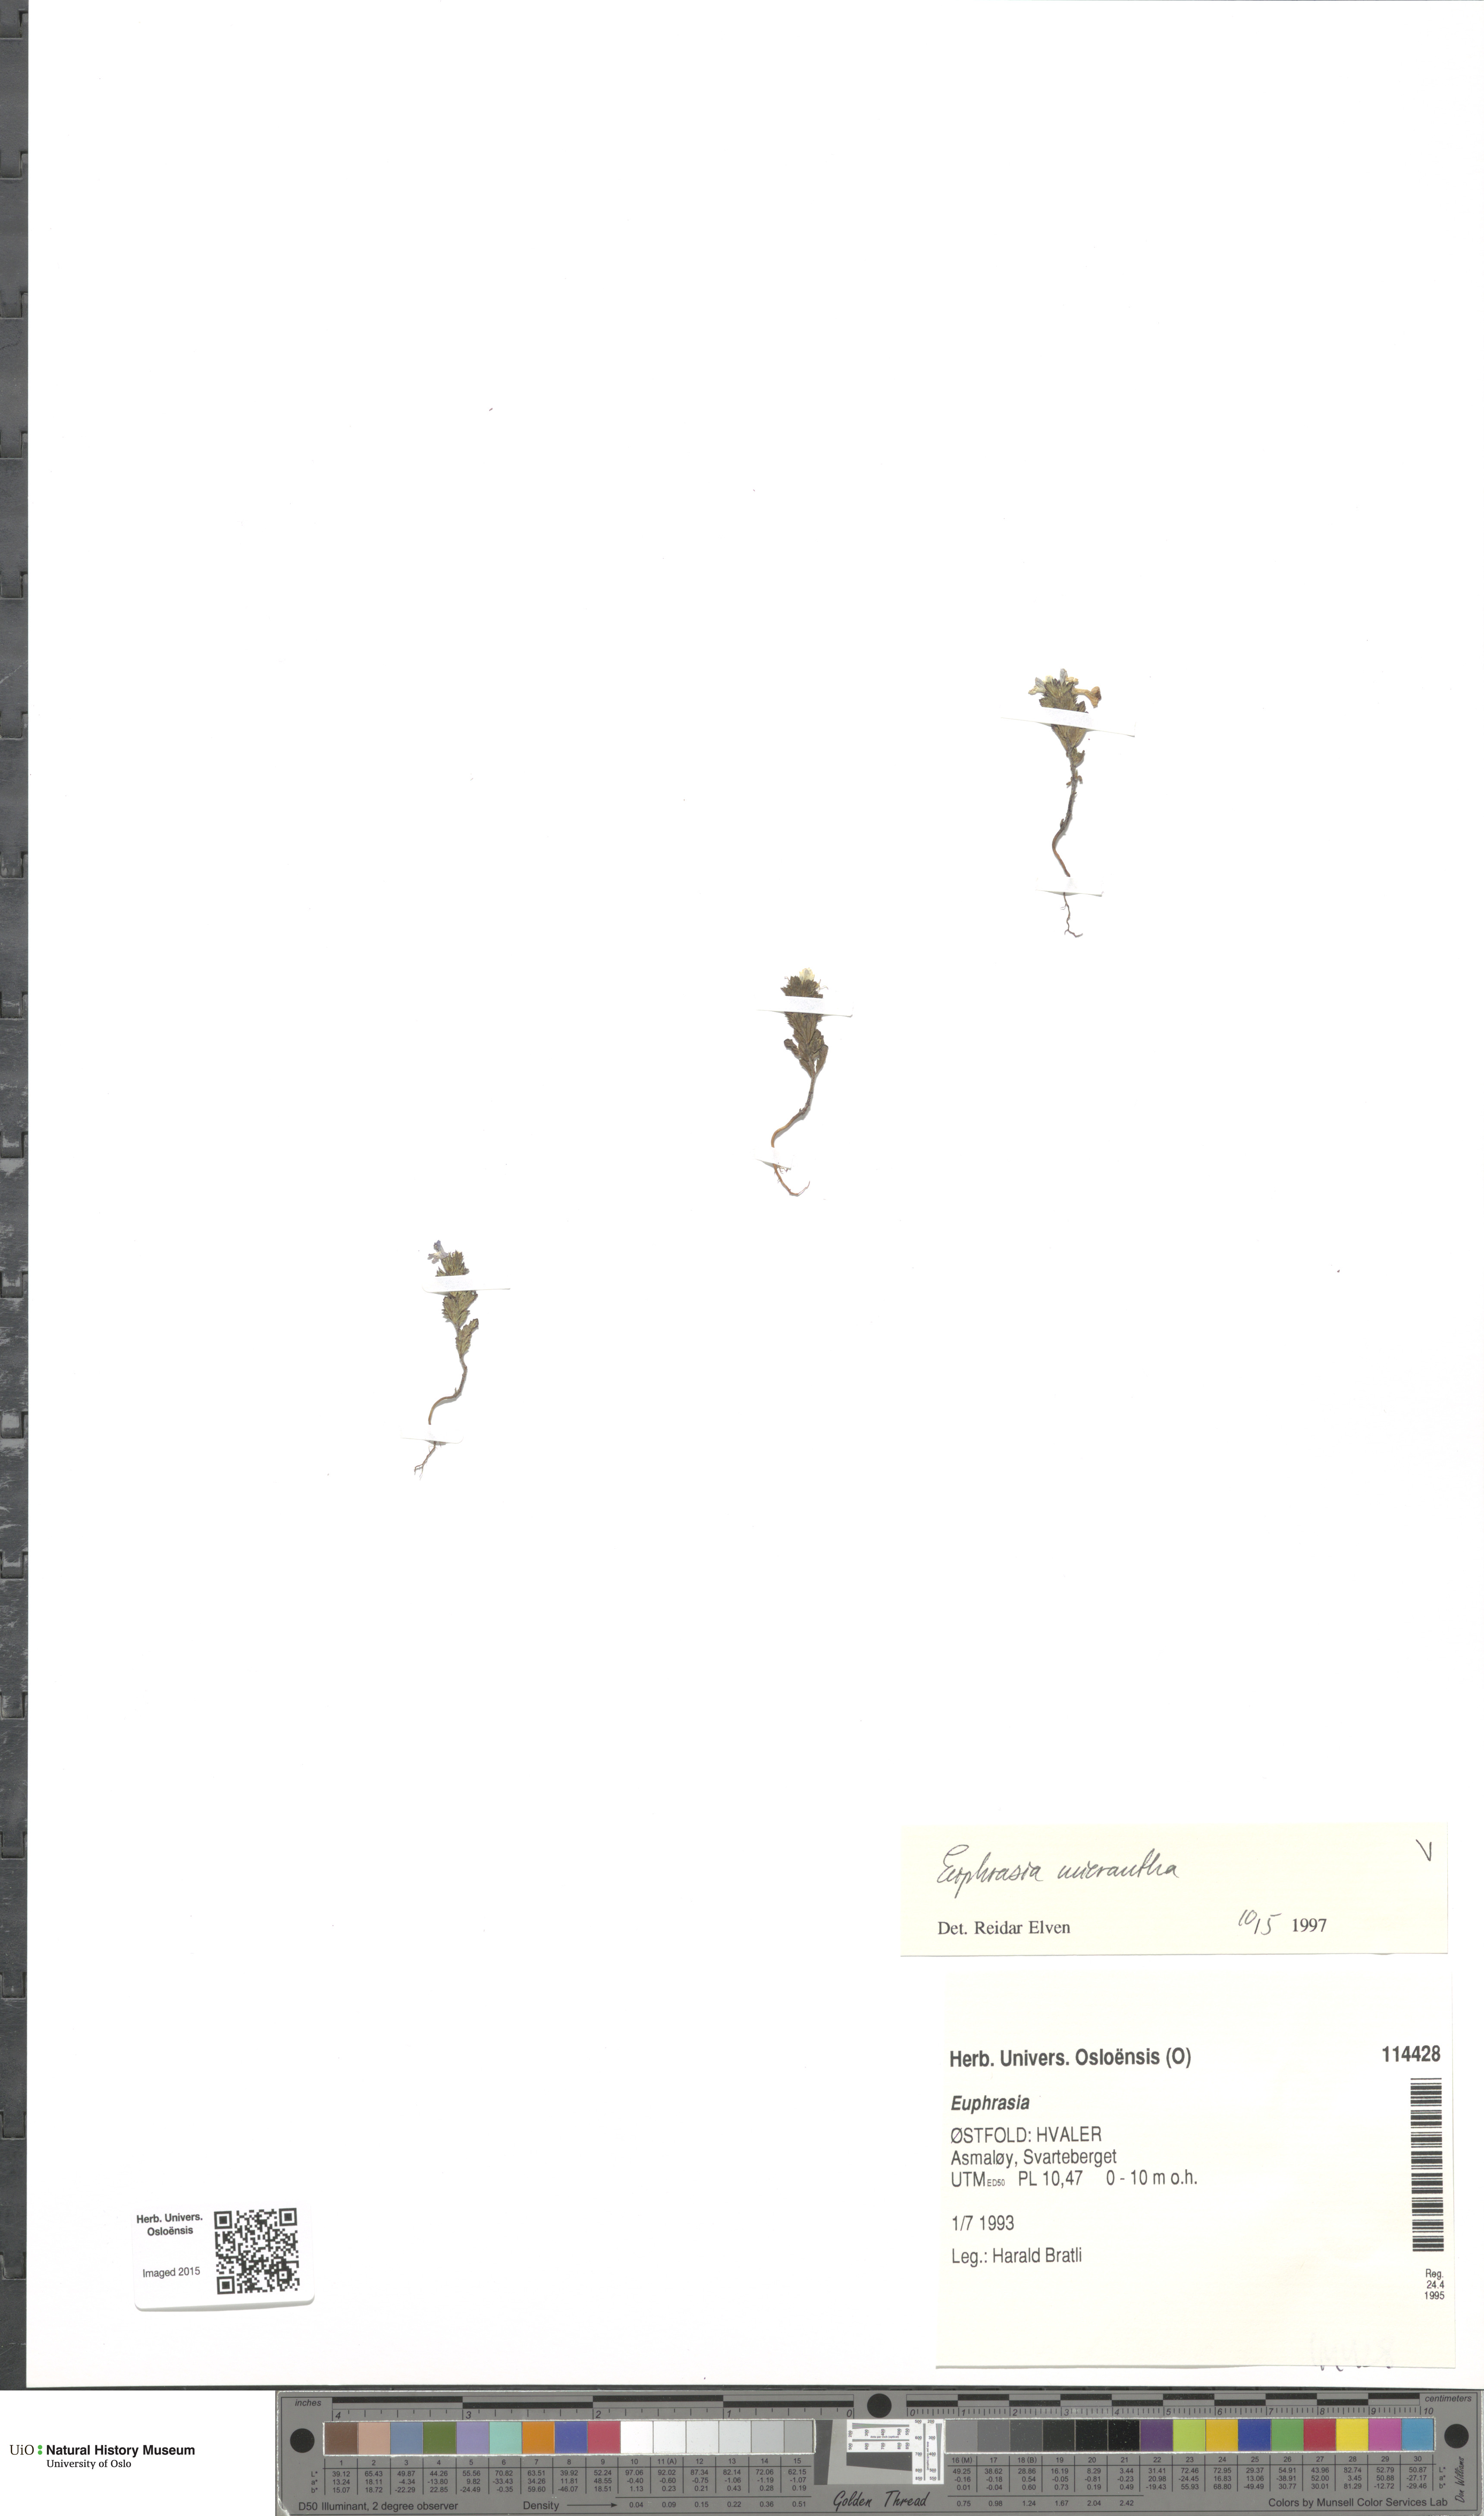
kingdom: Plantae
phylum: Tracheophyta
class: Magnoliopsida
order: Lamiales
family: Orobanchaceae
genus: Euphrasia
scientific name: Euphrasia micrantha
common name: Northern eyebright
